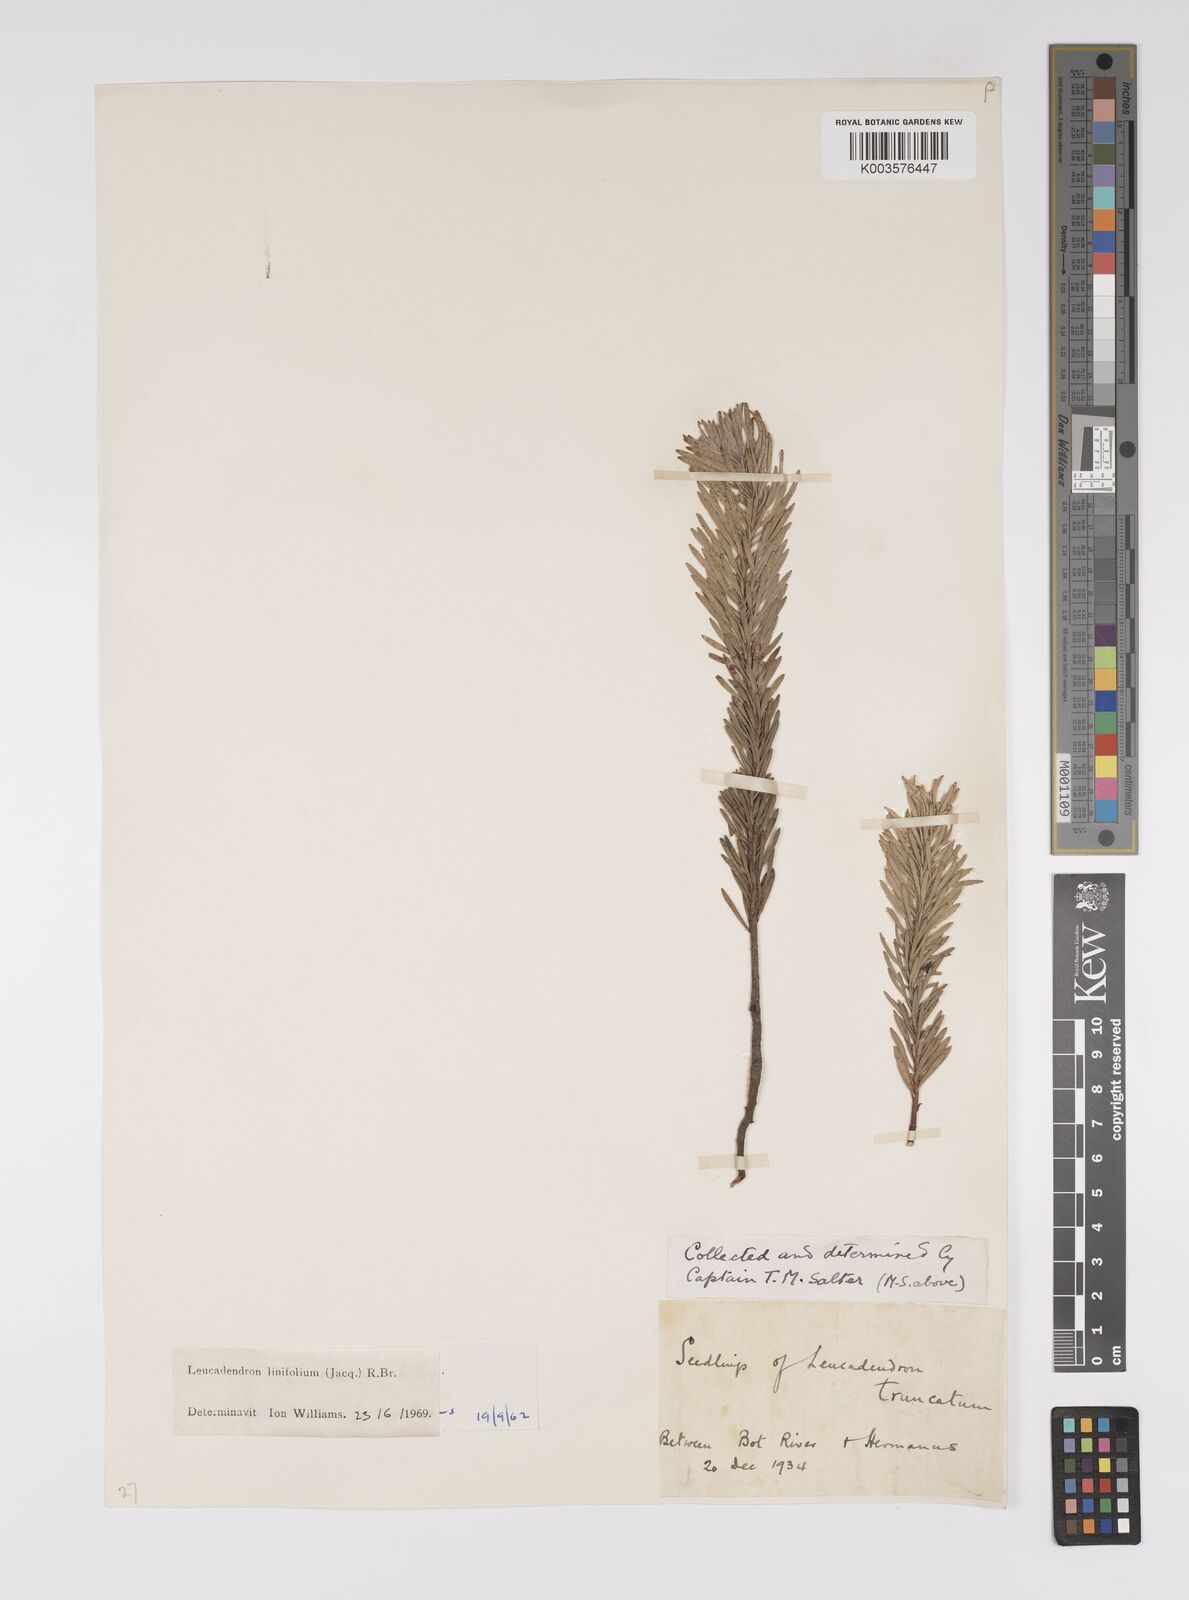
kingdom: Plantae
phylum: Tracheophyta
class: Magnoliopsida
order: Proteales
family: Proteaceae
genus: Leucadendron
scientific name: Leucadendron linifolium
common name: Line-leaf conebush
